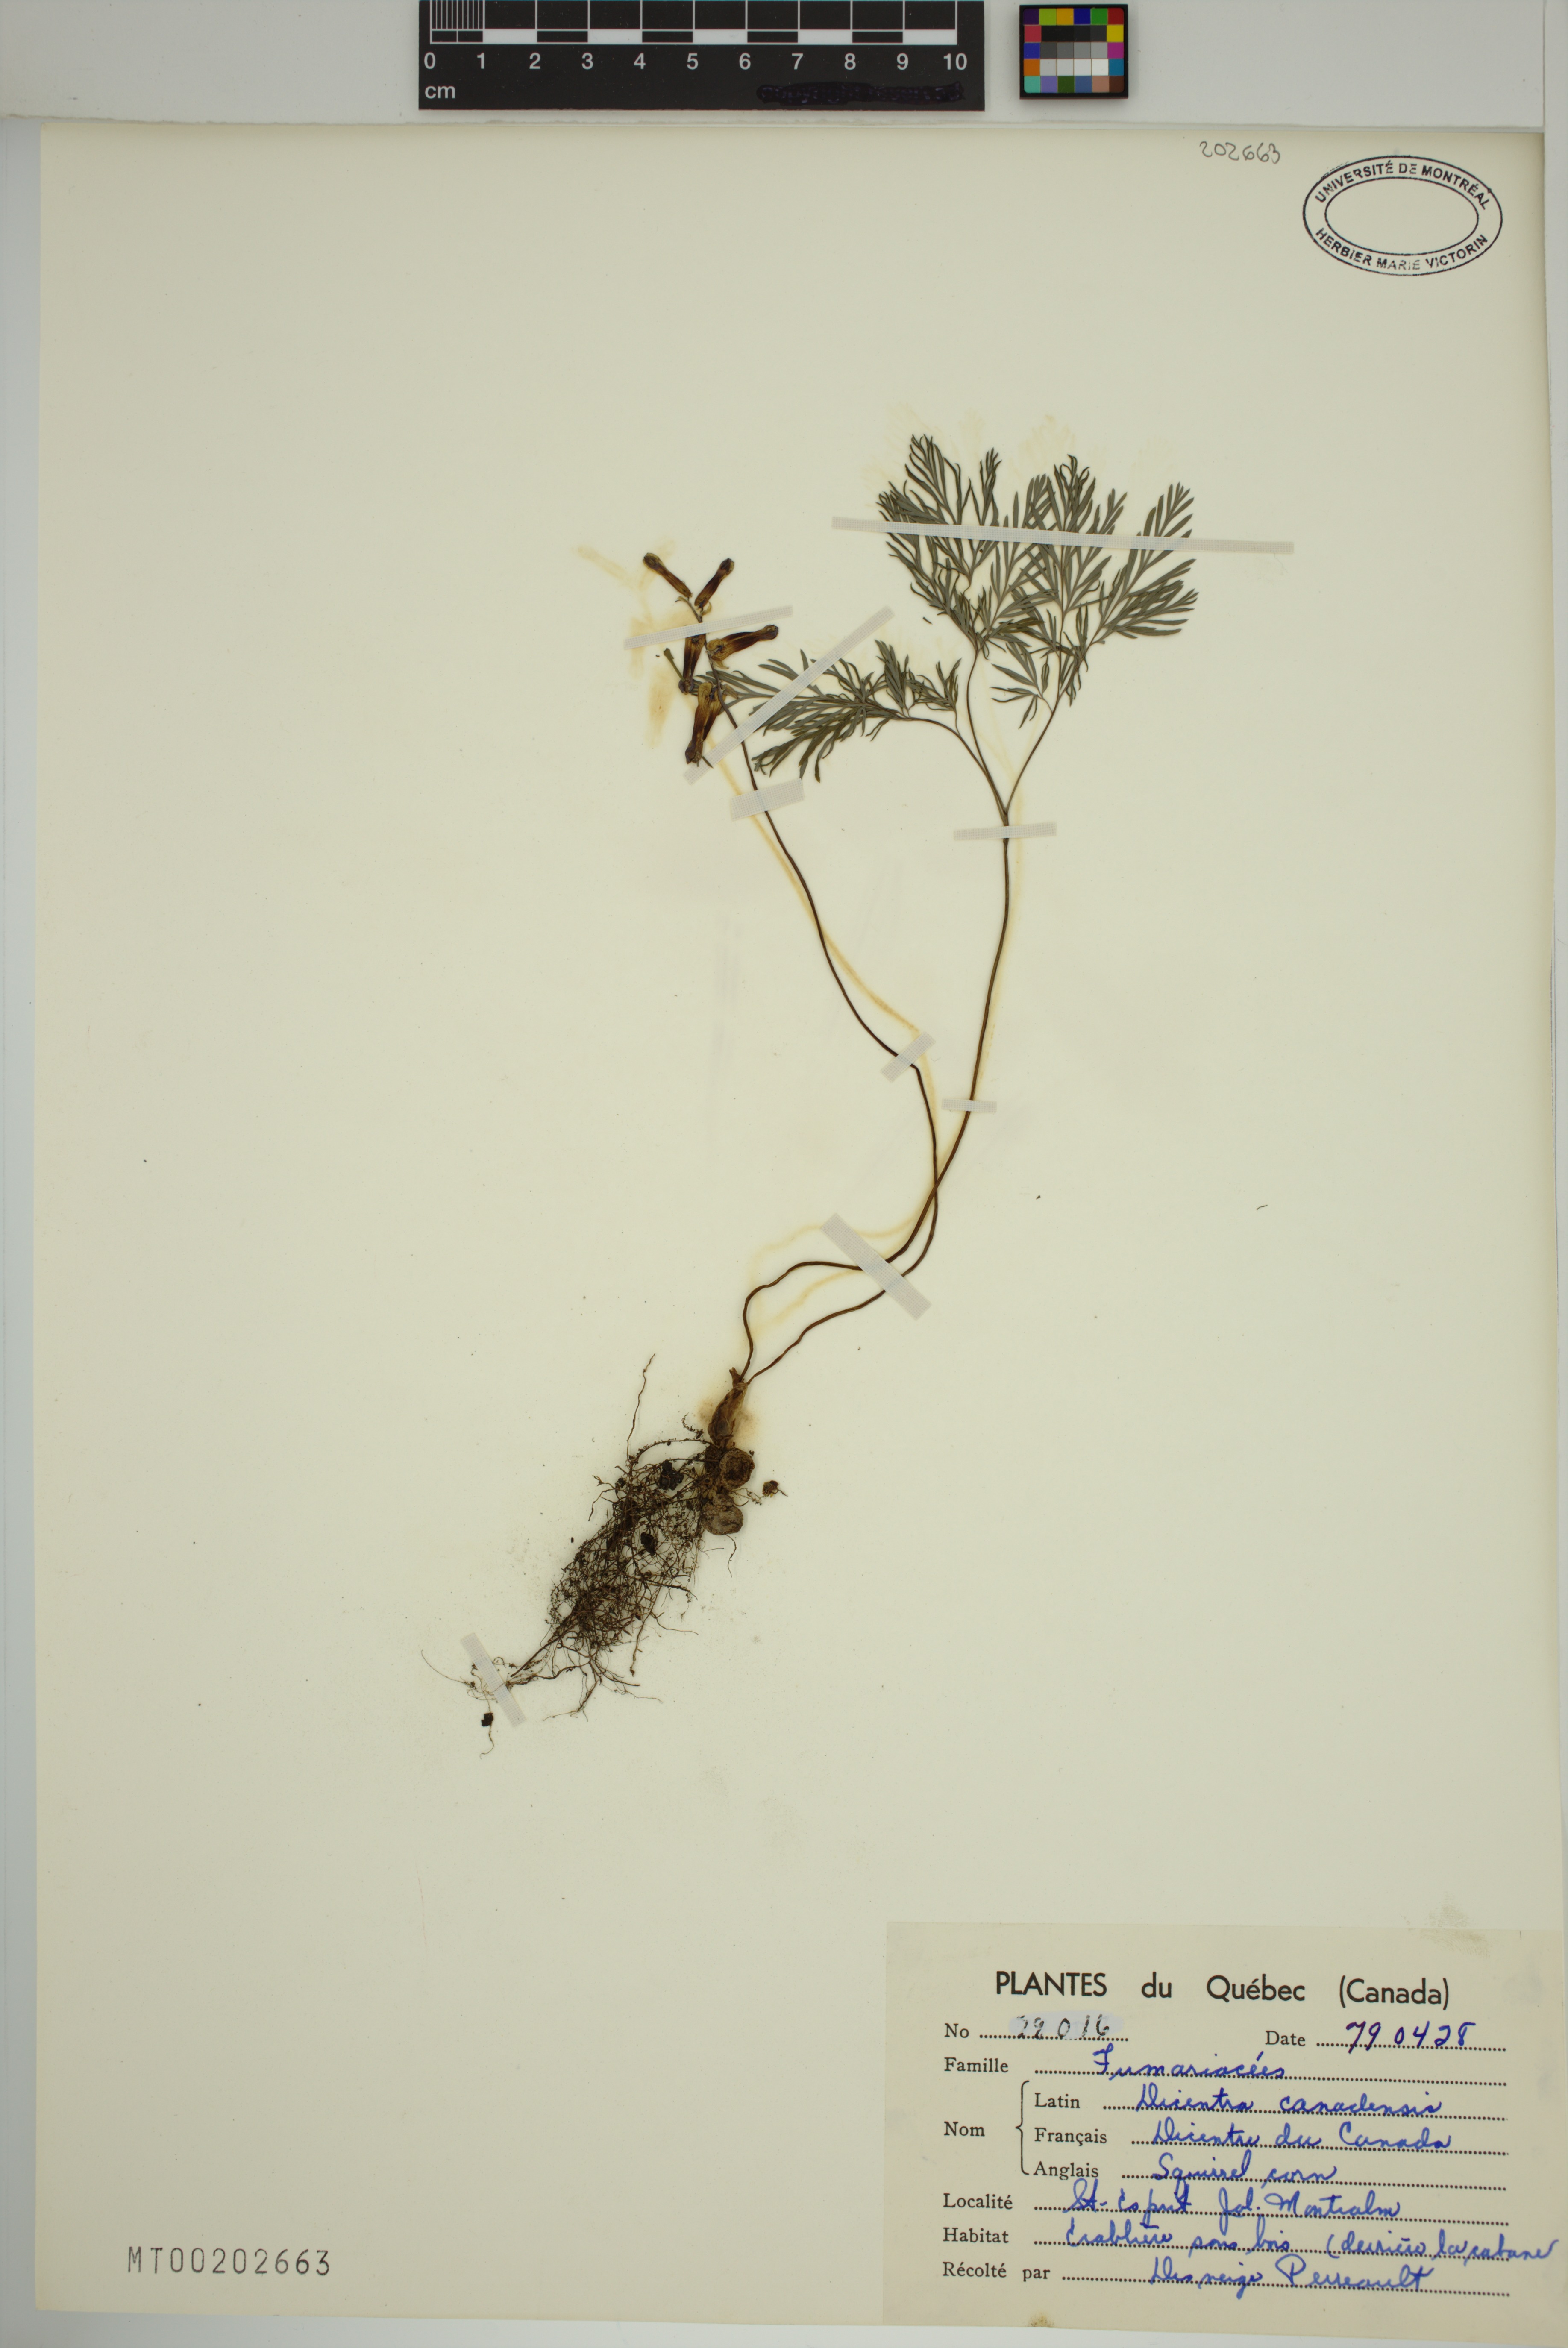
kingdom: Plantae
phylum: Tracheophyta
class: Magnoliopsida
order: Ranunculales
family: Papaveraceae
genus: Dicentra
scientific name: Dicentra canadensis
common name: Squirrel-corn
